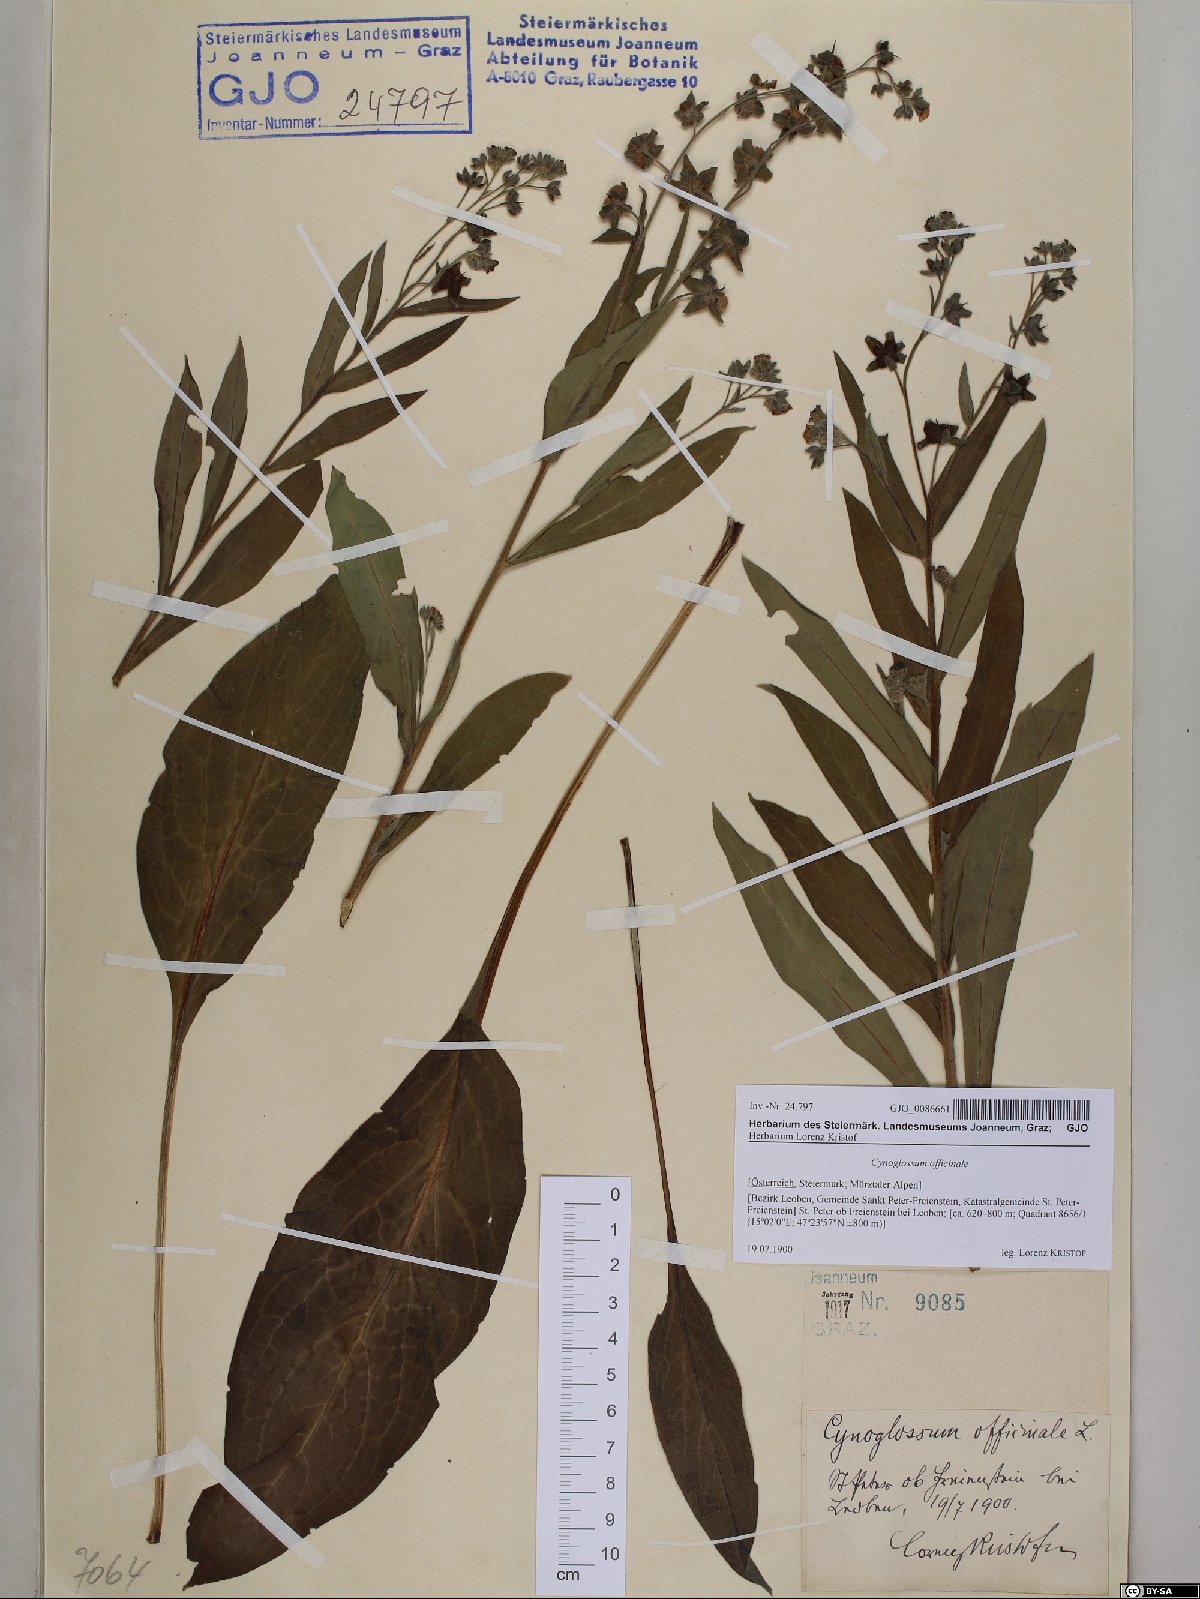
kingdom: Plantae
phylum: Tracheophyta
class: Magnoliopsida
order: Boraginales
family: Boraginaceae
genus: Cynoglossum
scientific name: Cynoglossum officinale
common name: Hound's-tongue
